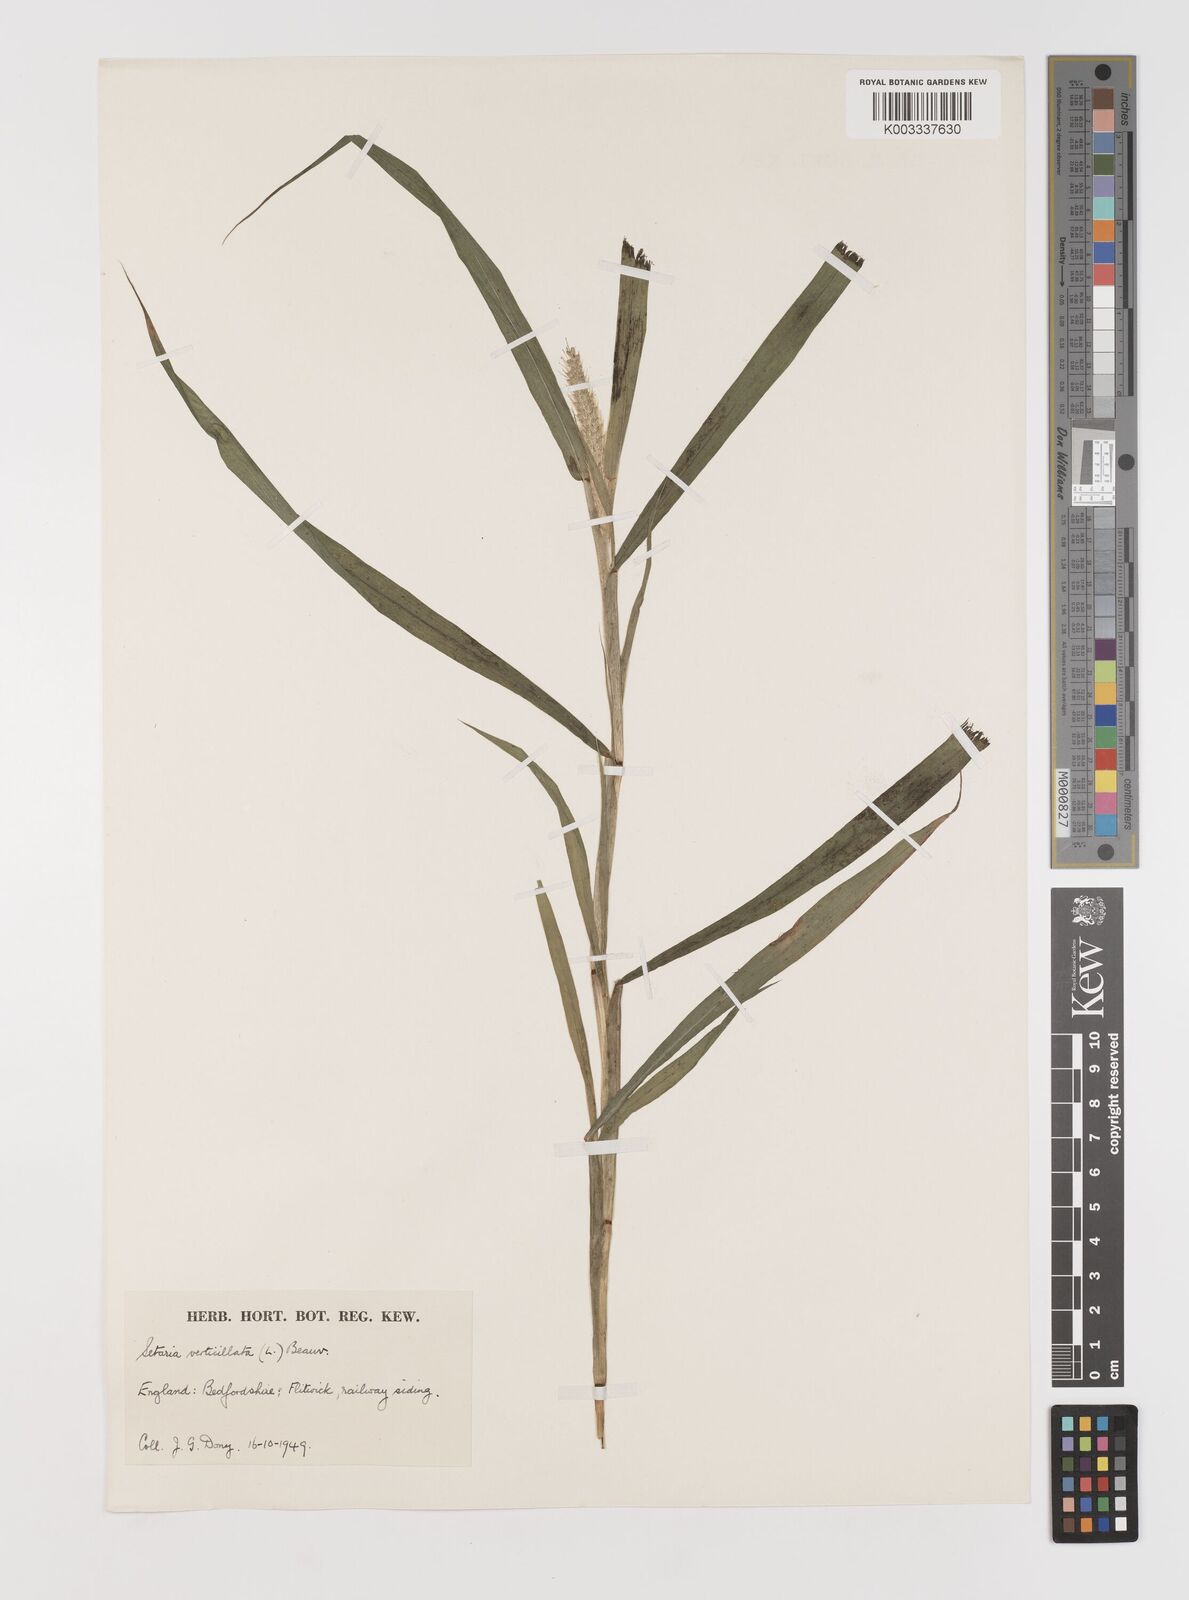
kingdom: Plantae
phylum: Tracheophyta
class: Liliopsida
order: Poales
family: Poaceae
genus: Setaria
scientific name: Setaria verticillata
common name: Hooked bristlegrass
